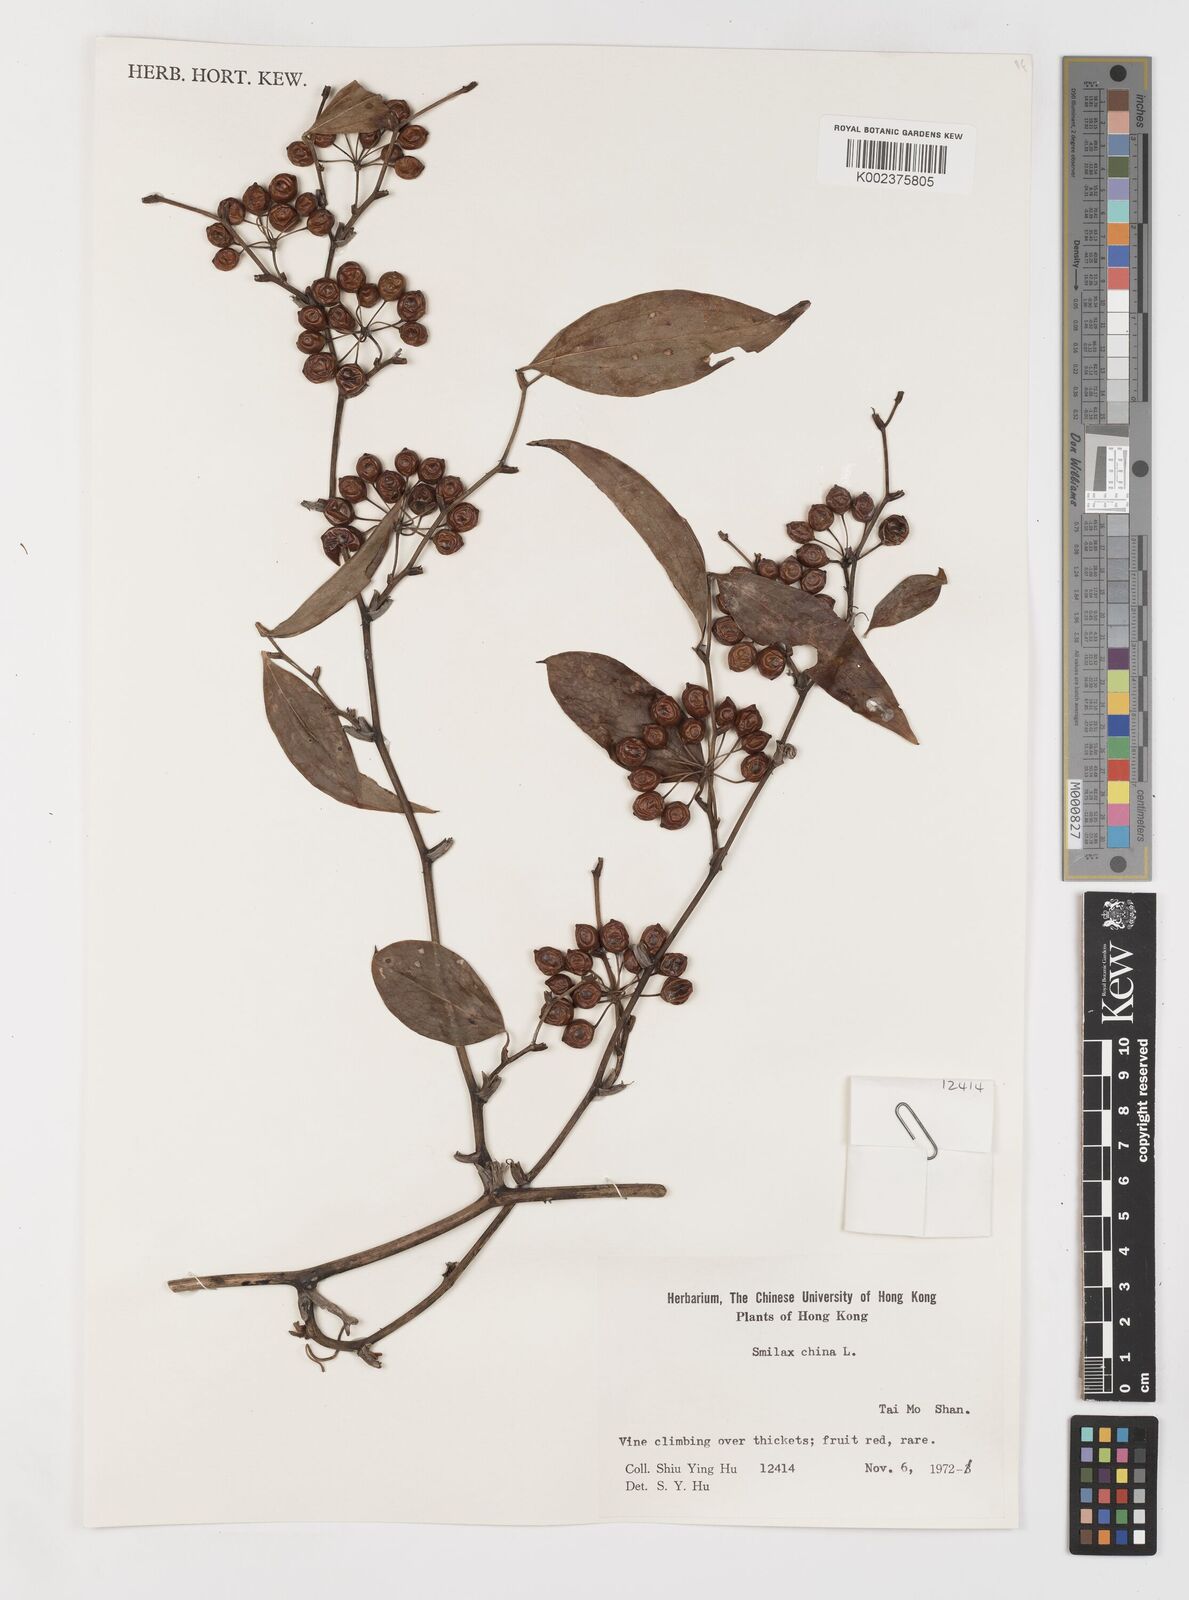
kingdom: Plantae
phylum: Tracheophyta
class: Liliopsida
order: Liliales
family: Smilacaceae
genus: Smilax
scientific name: Smilax china
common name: Chinaroot
